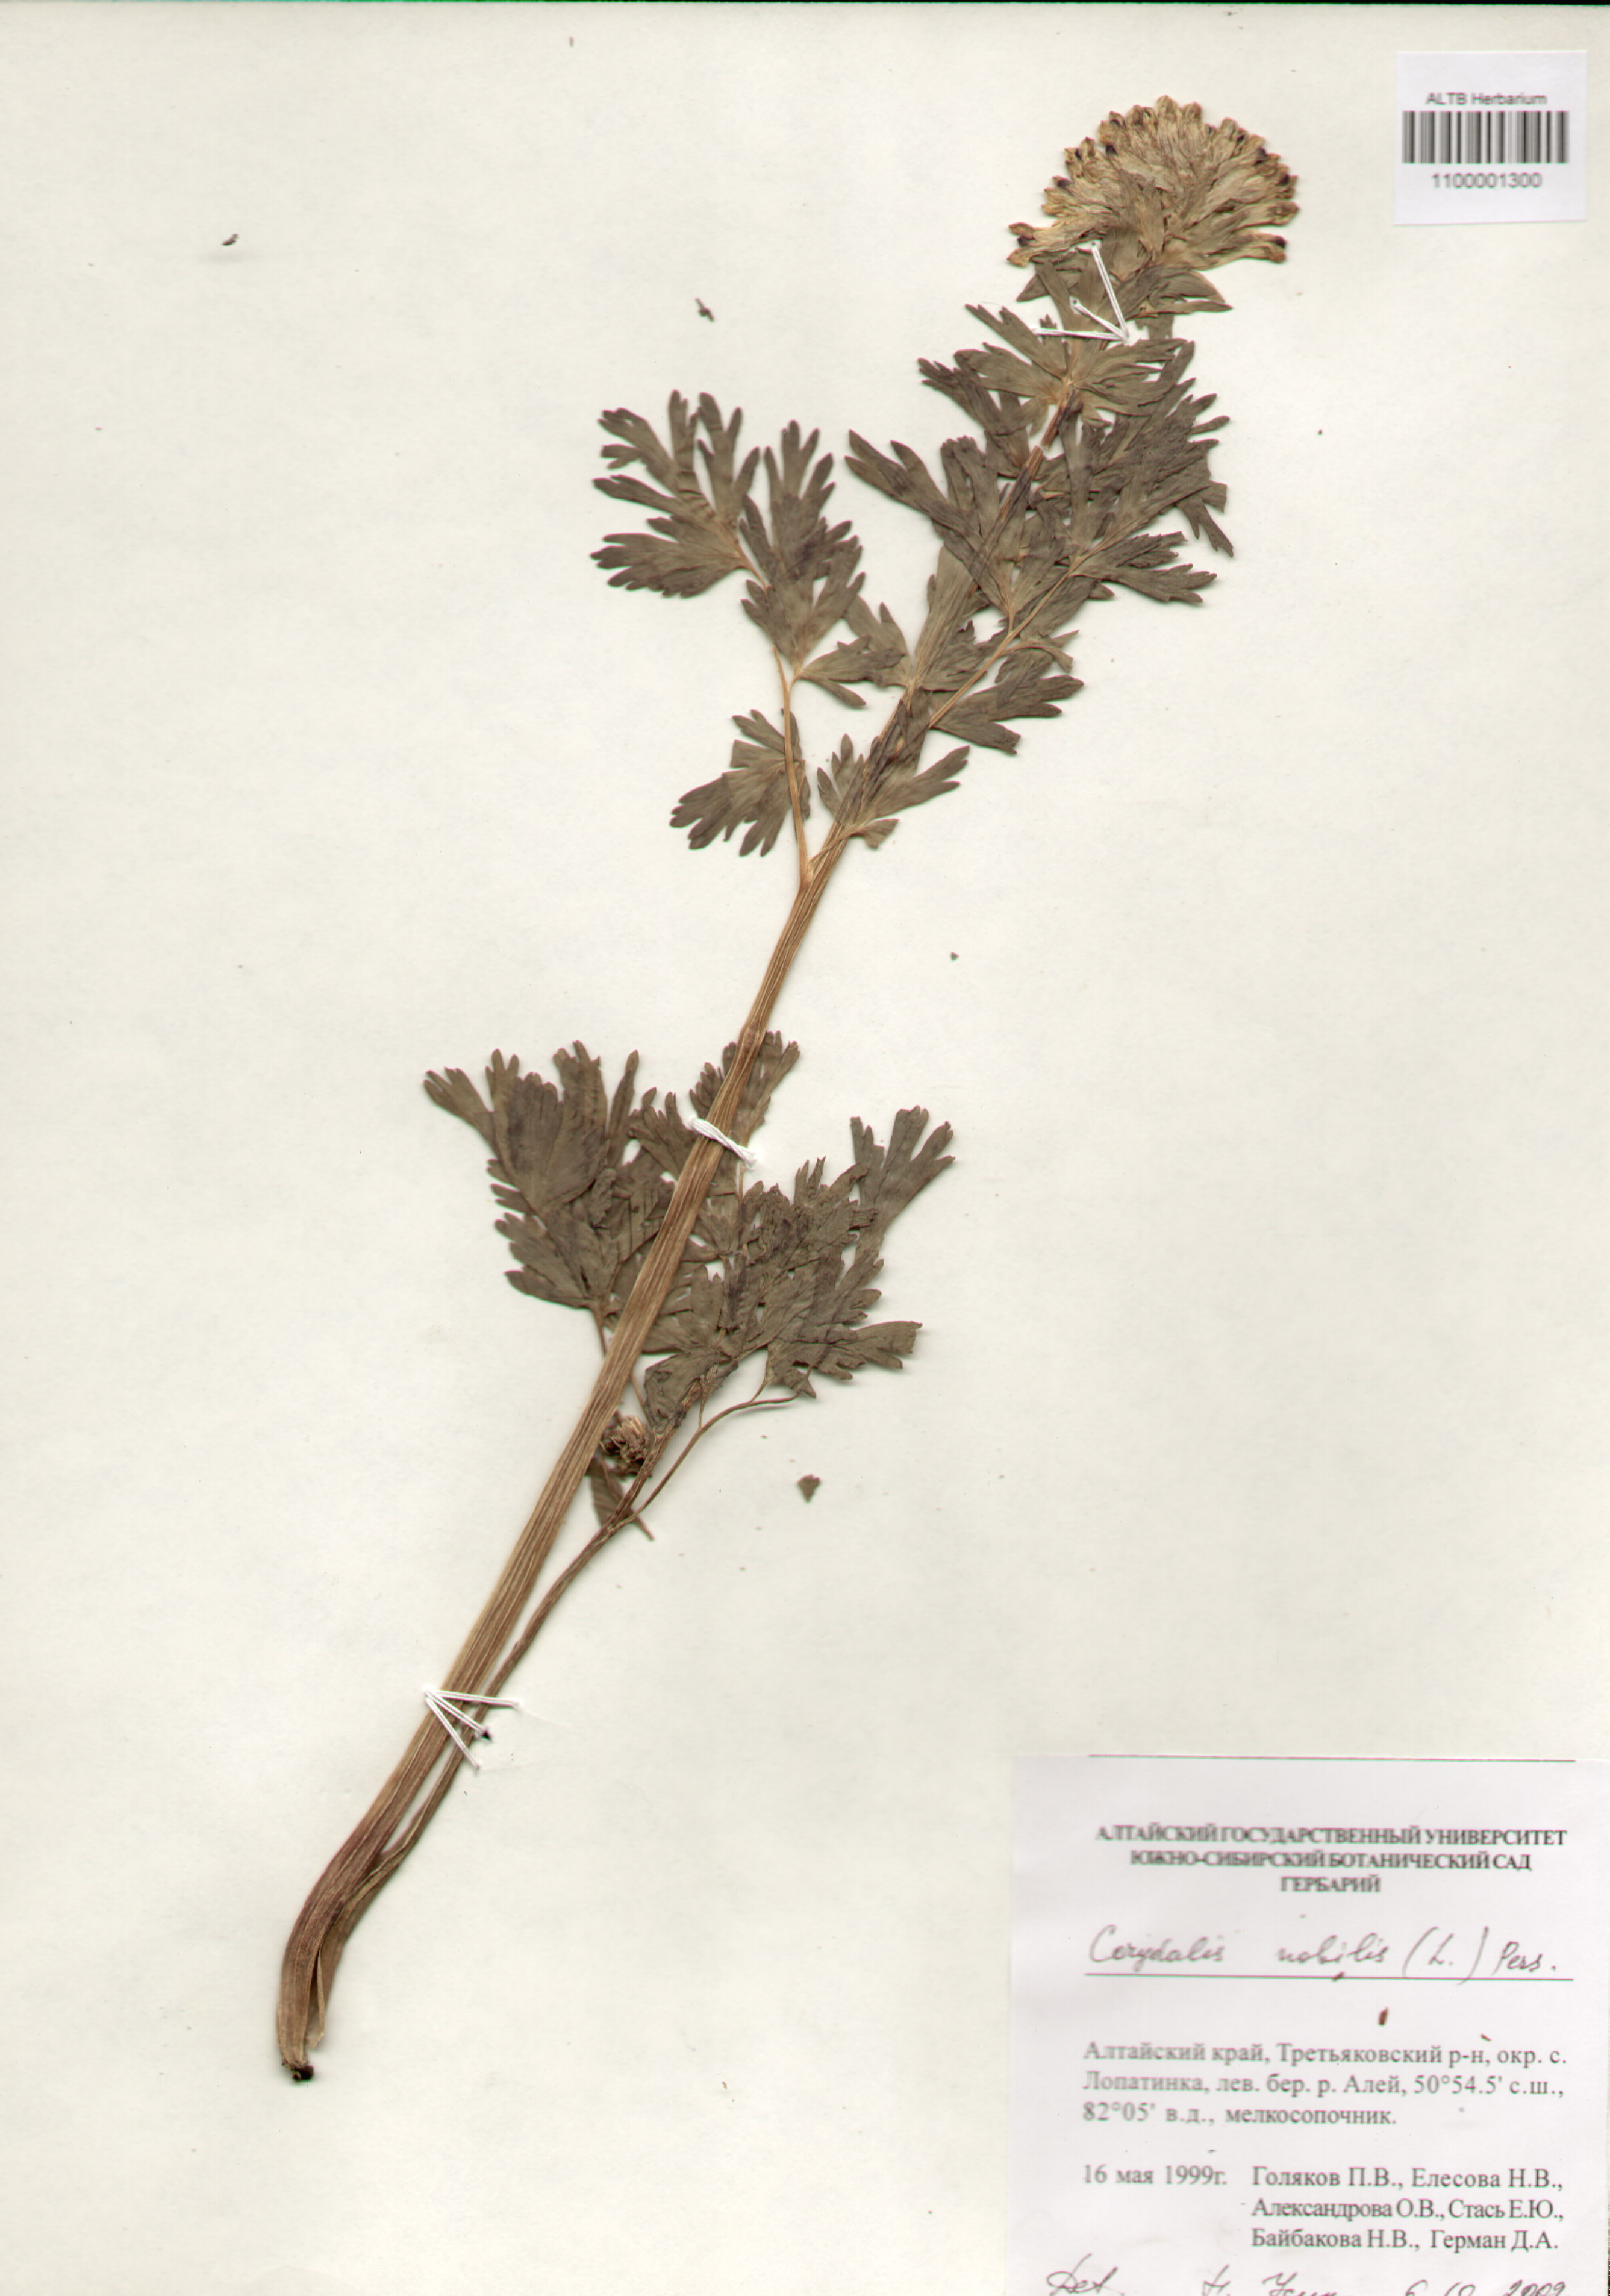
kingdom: Plantae
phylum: Tracheophyta
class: Magnoliopsida
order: Ranunculales
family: Papaveraceae
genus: Corydalis
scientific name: Corydalis nobilis
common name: Siberian corydalis
